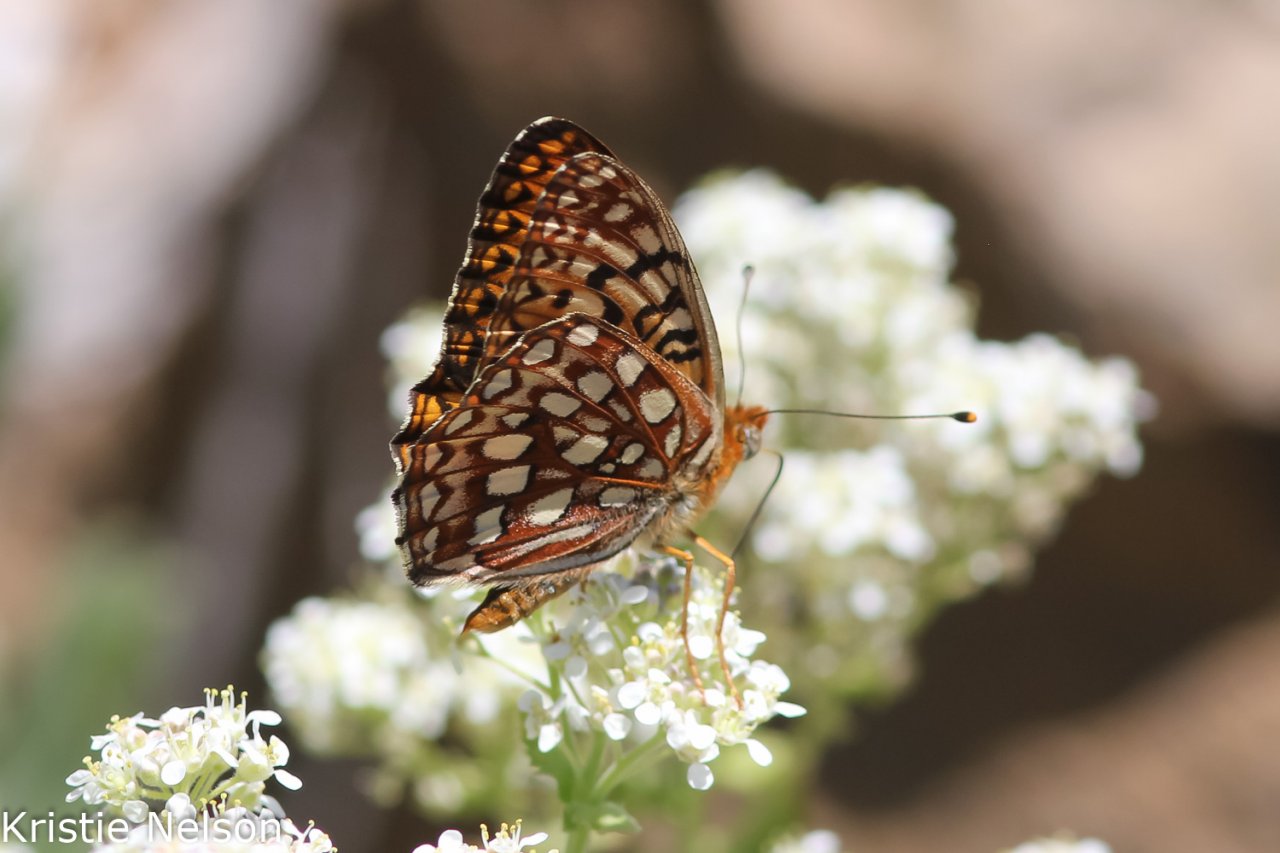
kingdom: Animalia
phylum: Arthropoda
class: Insecta
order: Lepidoptera
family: Nymphalidae
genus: Speyeria
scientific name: Speyeria atlantis
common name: Atlantis Fritillary
